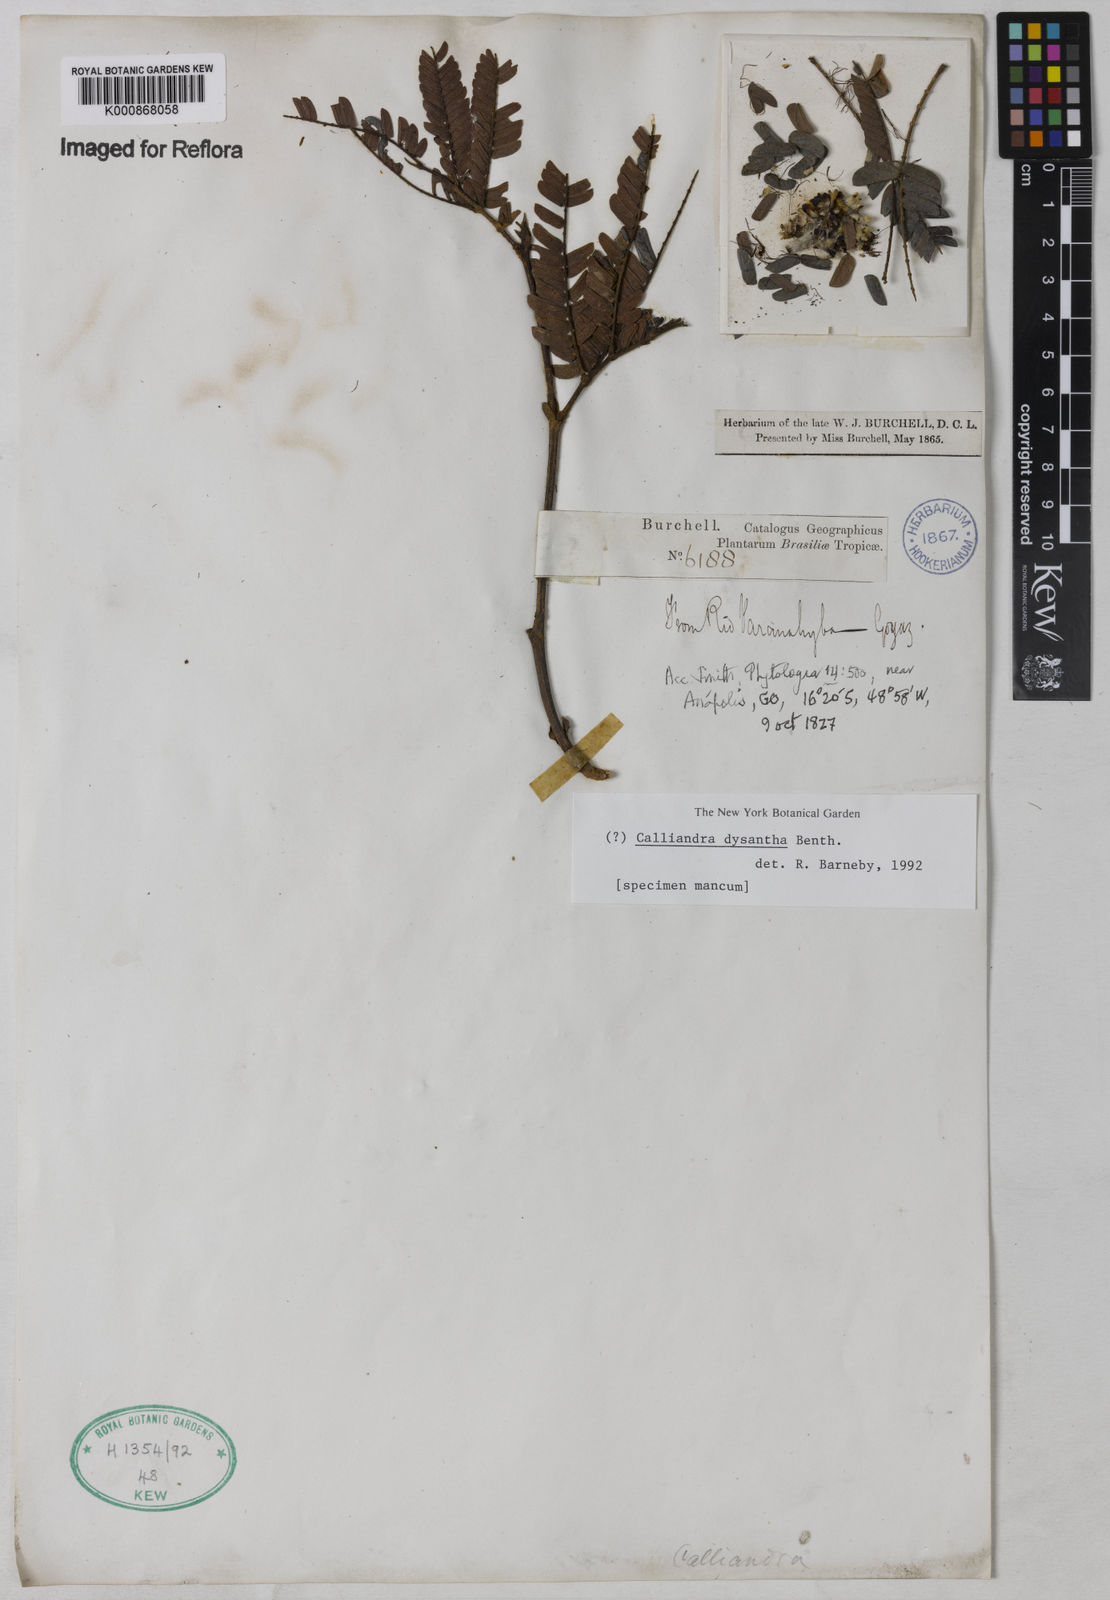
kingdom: Plantae
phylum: Tracheophyta
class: Magnoliopsida
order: Fabales
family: Fabaceae
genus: Calliandra
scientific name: Calliandra dysantha
